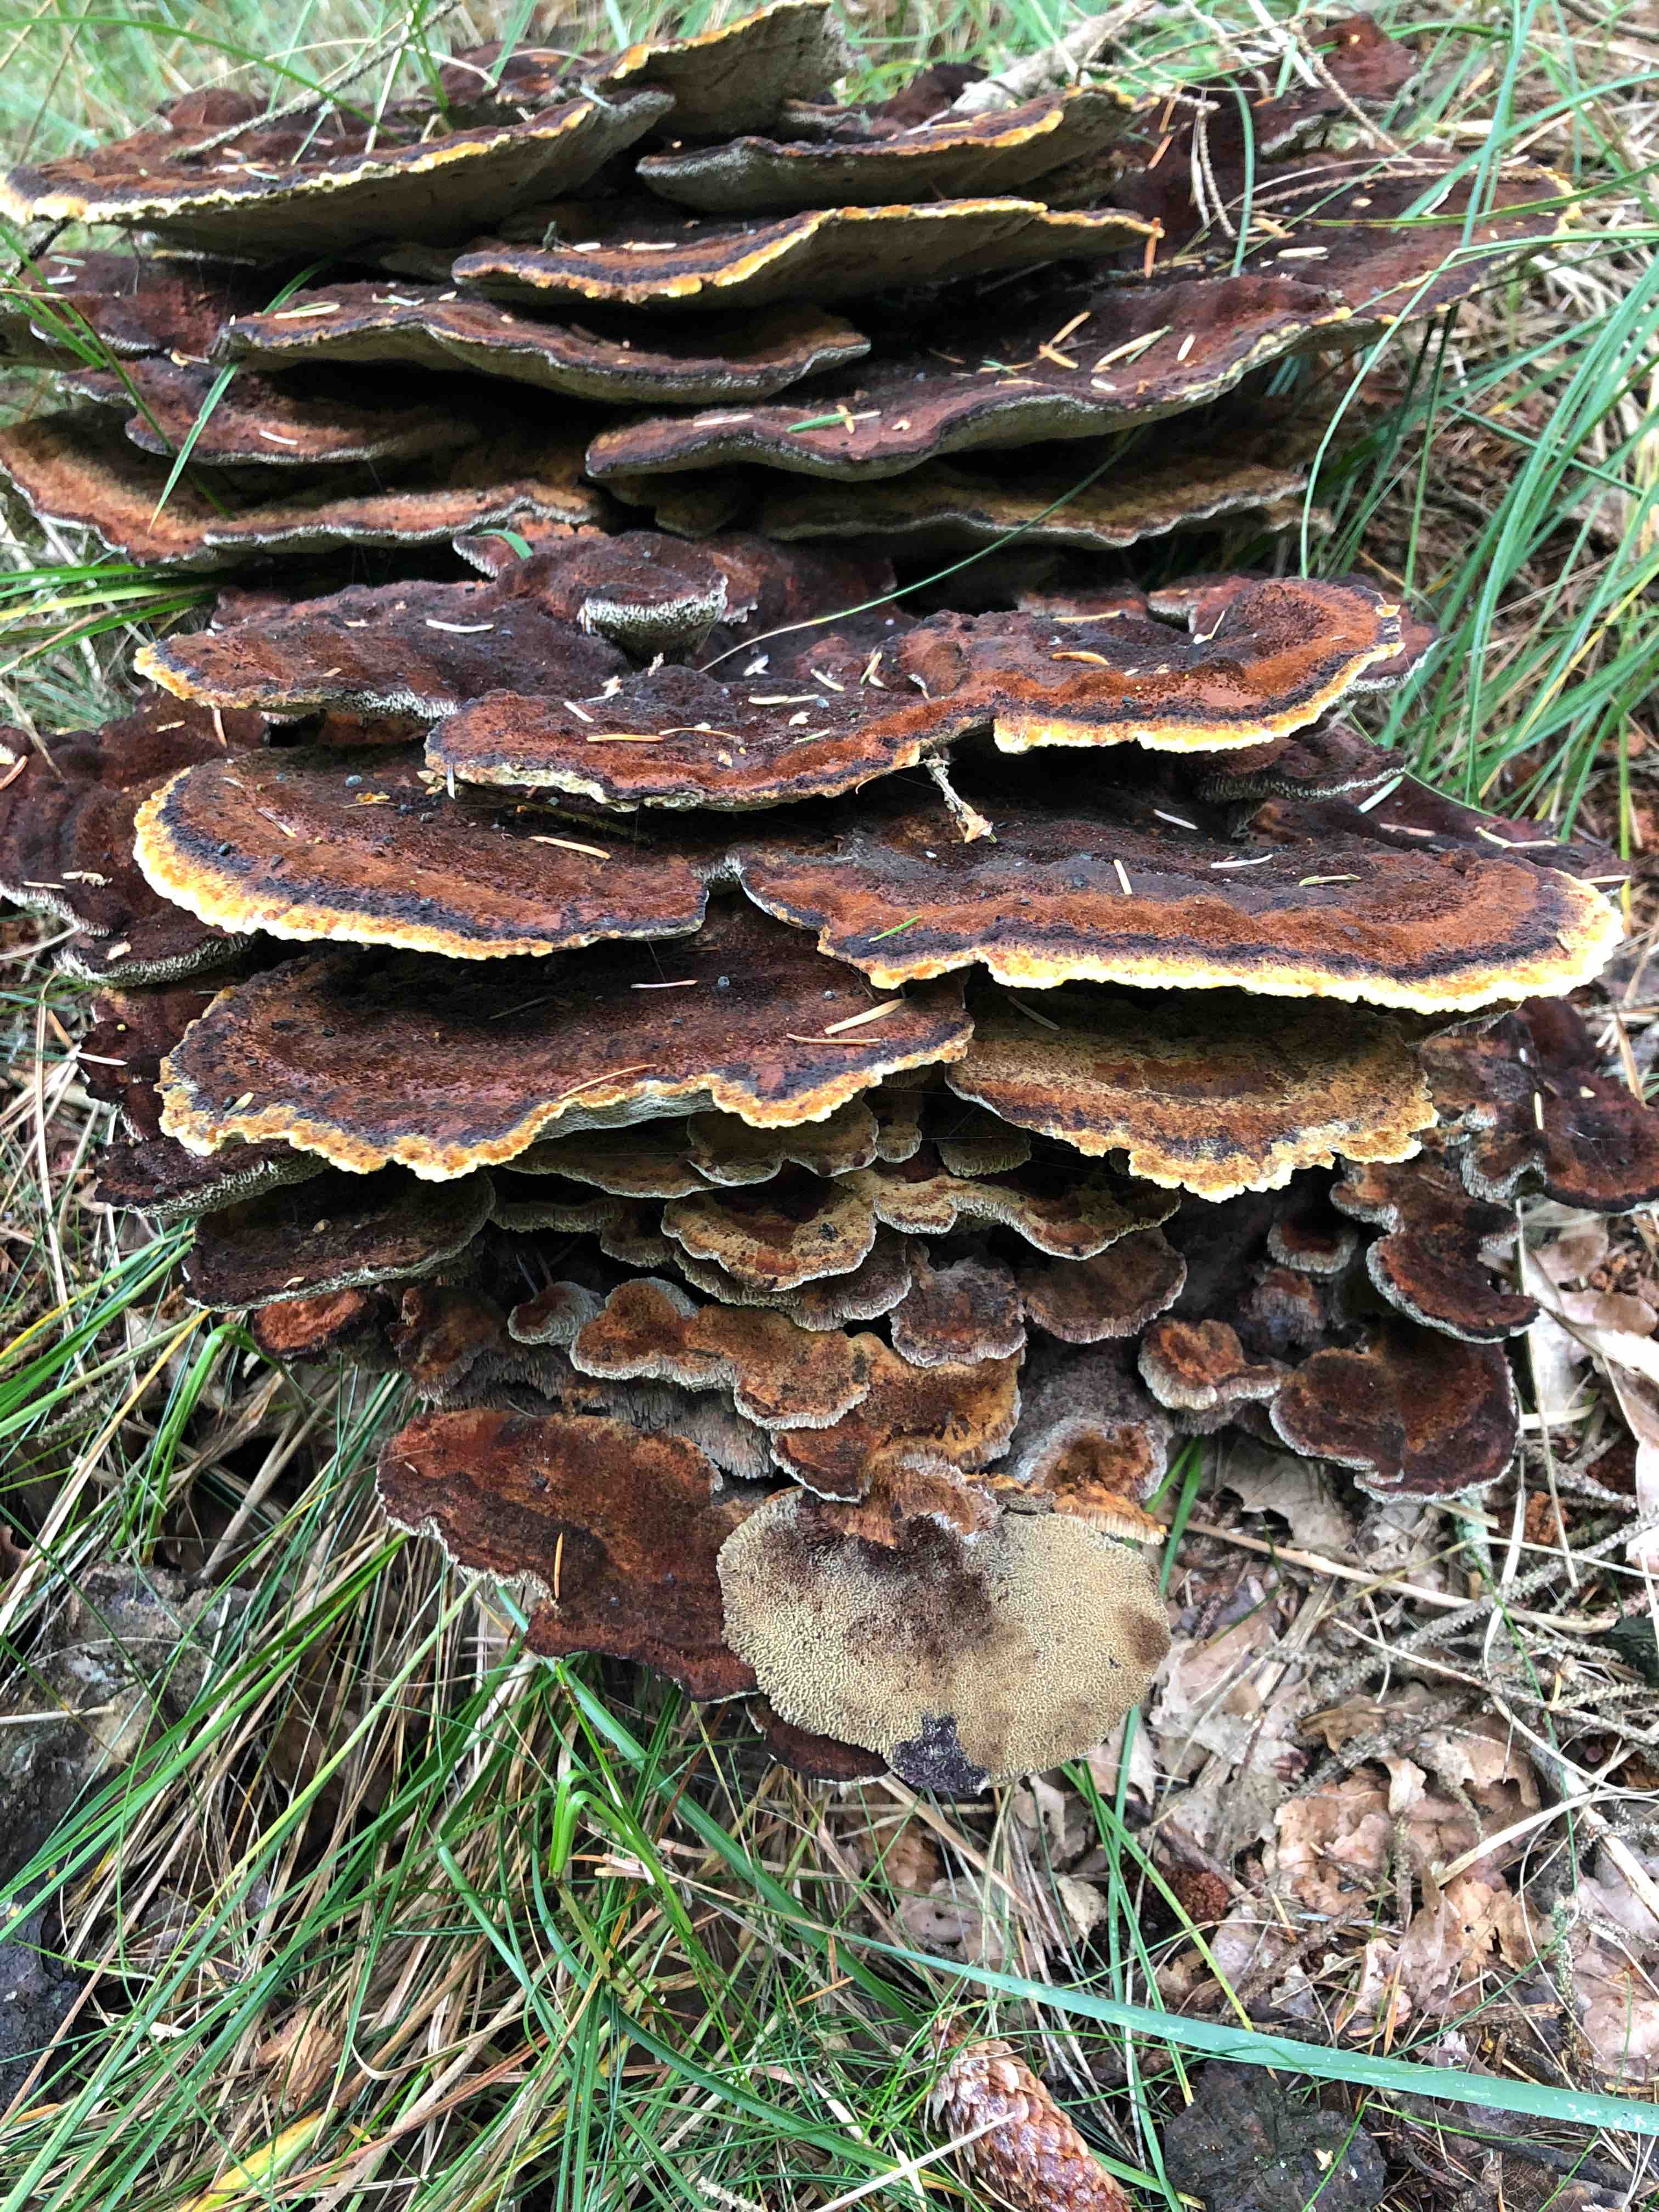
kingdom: Fungi
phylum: Basidiomycota
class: Agaricomycetes
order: Polyporales
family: Laetiporaceae
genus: Phaeolus
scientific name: Phaeolus schweinitzii
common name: brunporesvamp
